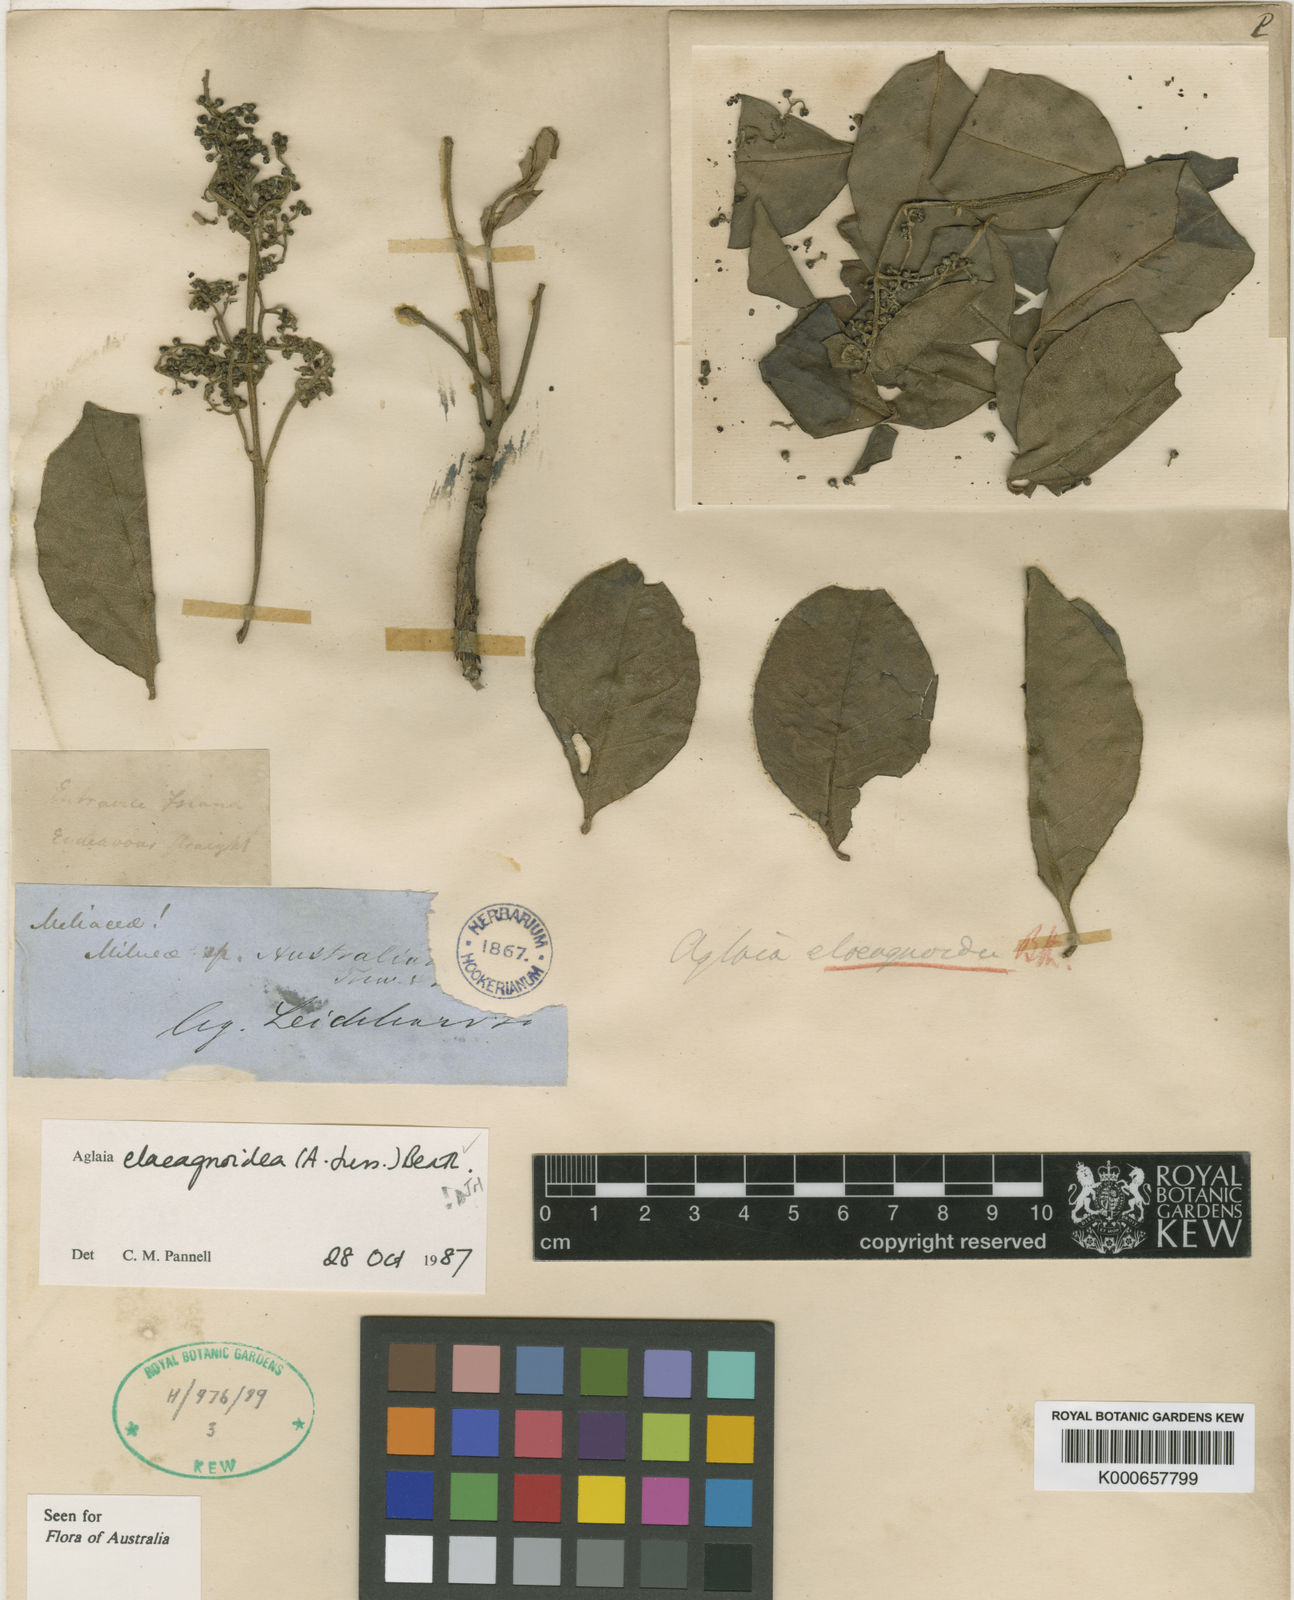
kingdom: Plantae
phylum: Tracheophyta
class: Magnoliopsida
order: Sapindales
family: Meliaceae
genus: Aglaia
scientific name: Aglaia elaeagnoidea
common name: Droopyleaf
